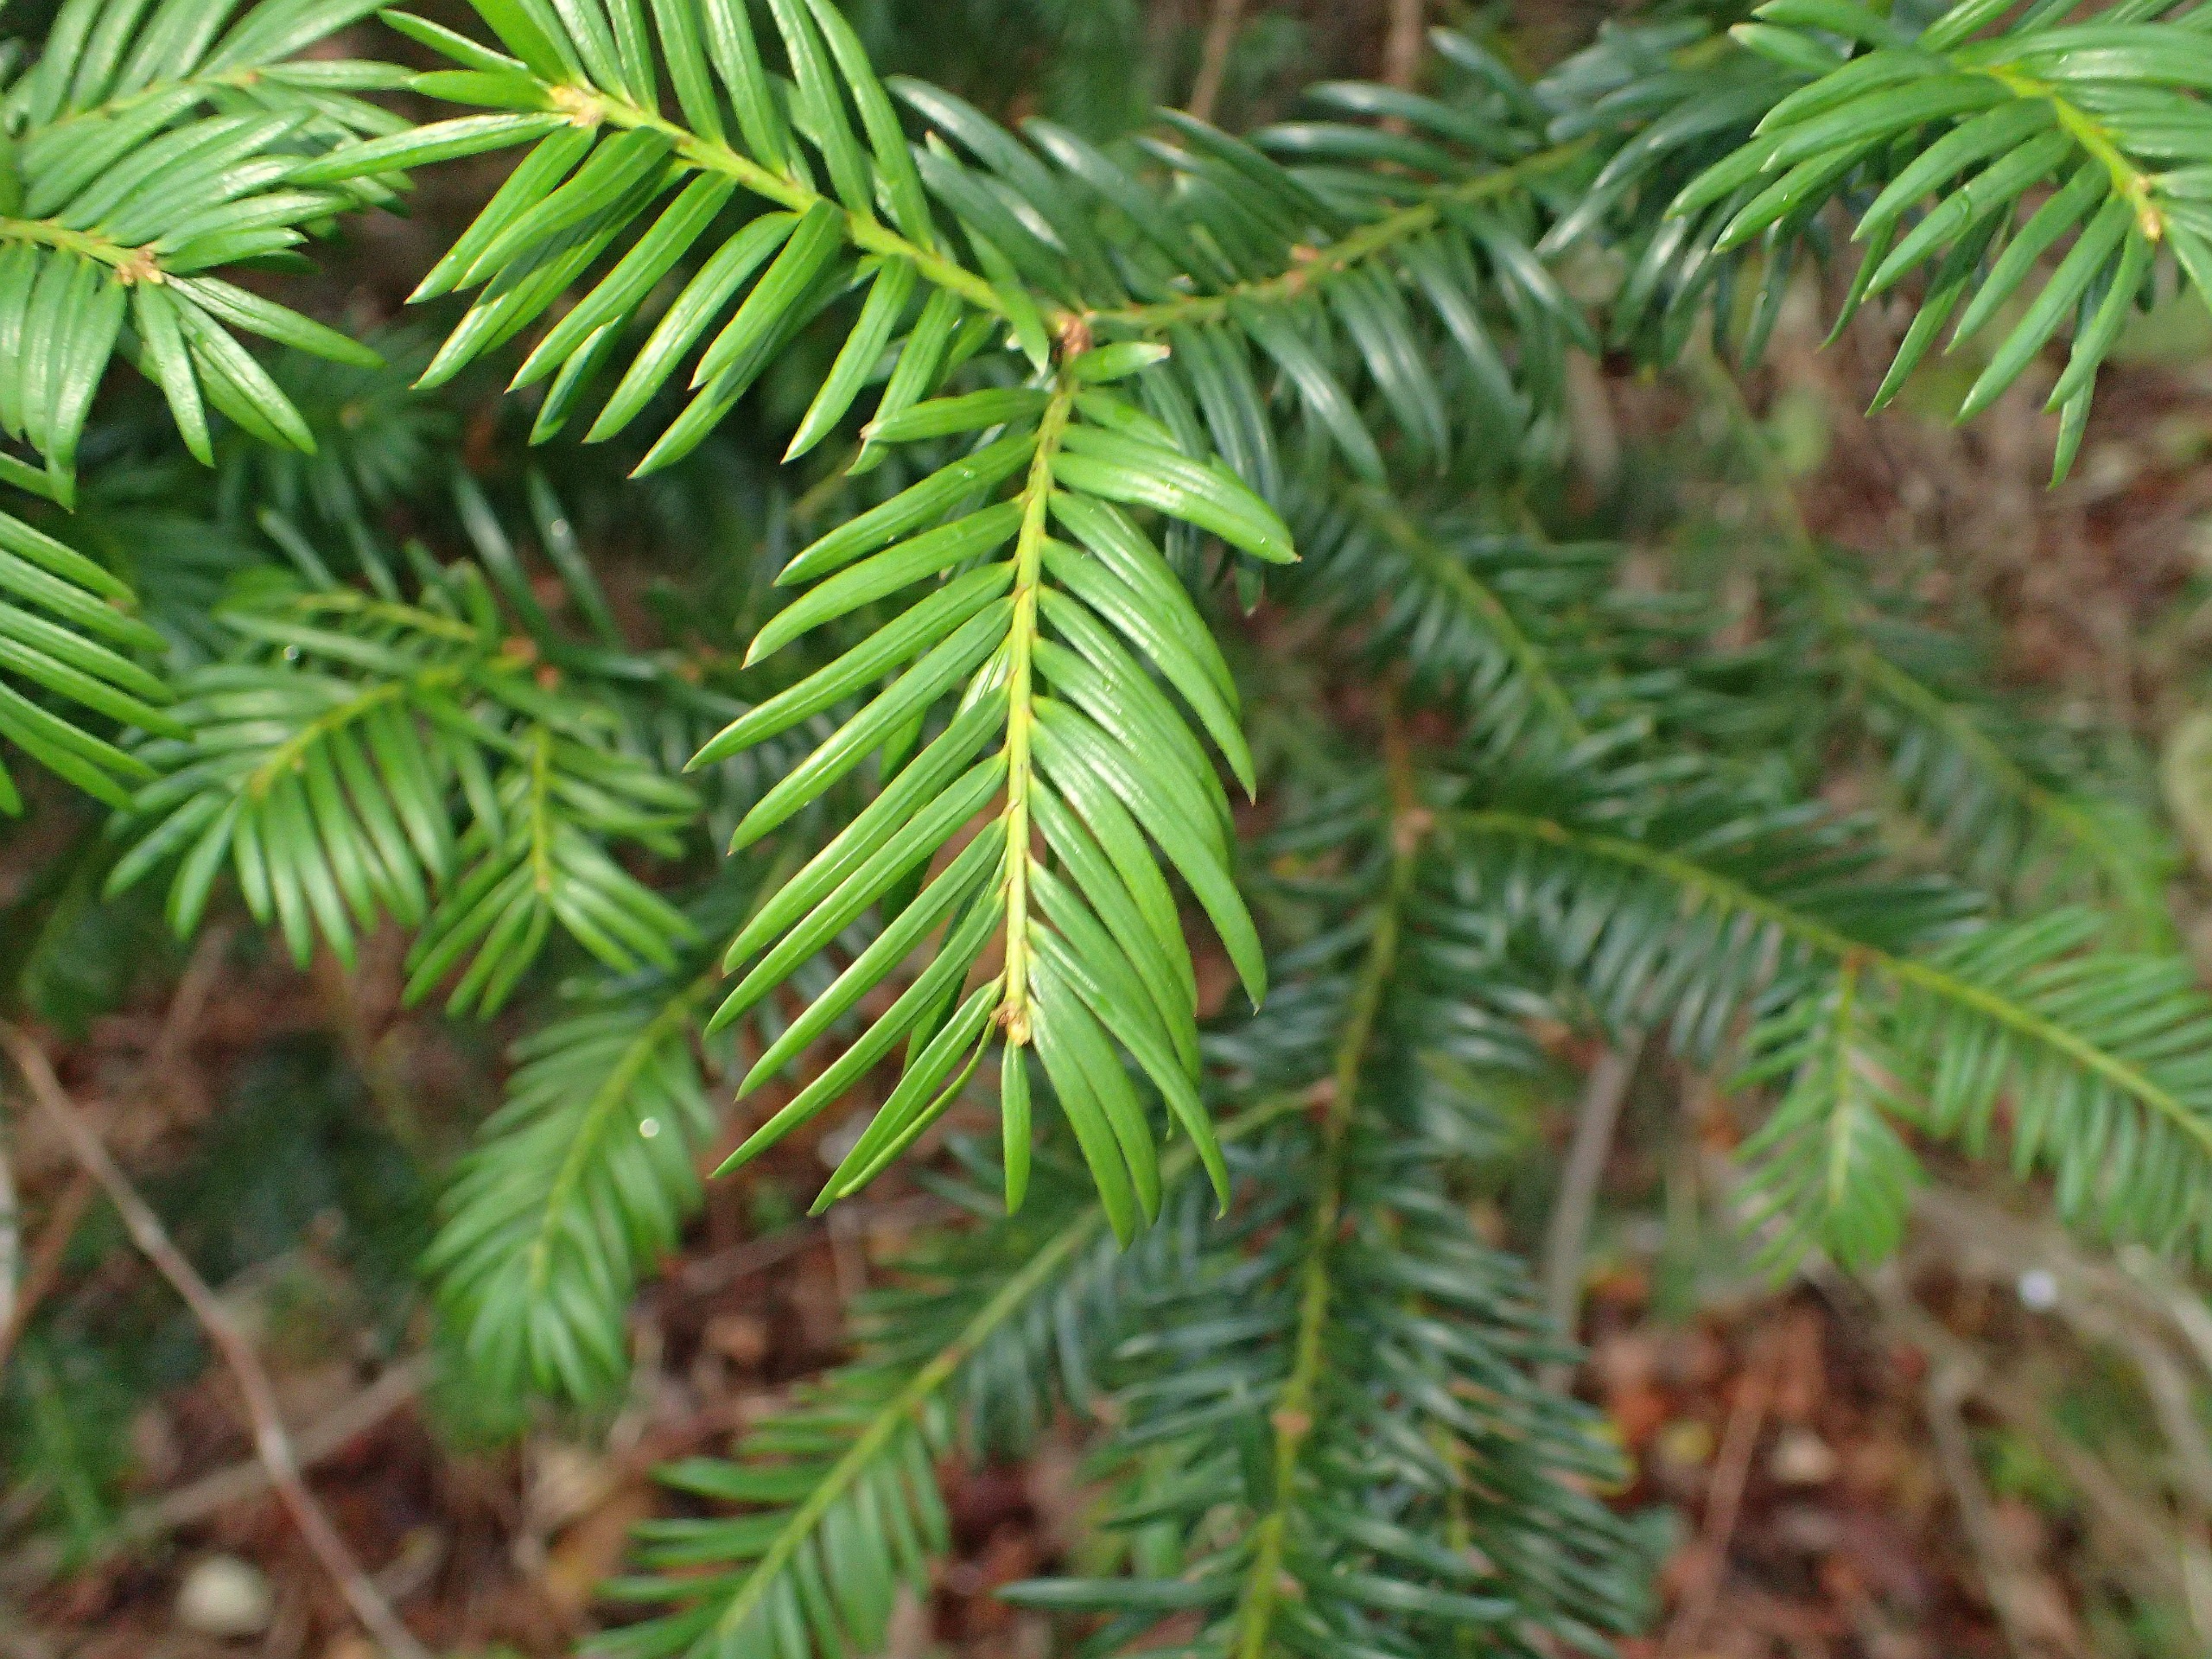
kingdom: Plantae
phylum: Tracheophyta
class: Pinopsida
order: Pinales
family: Taxaceae
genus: Taxus
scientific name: Taxus baccata
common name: Almindelig taks
